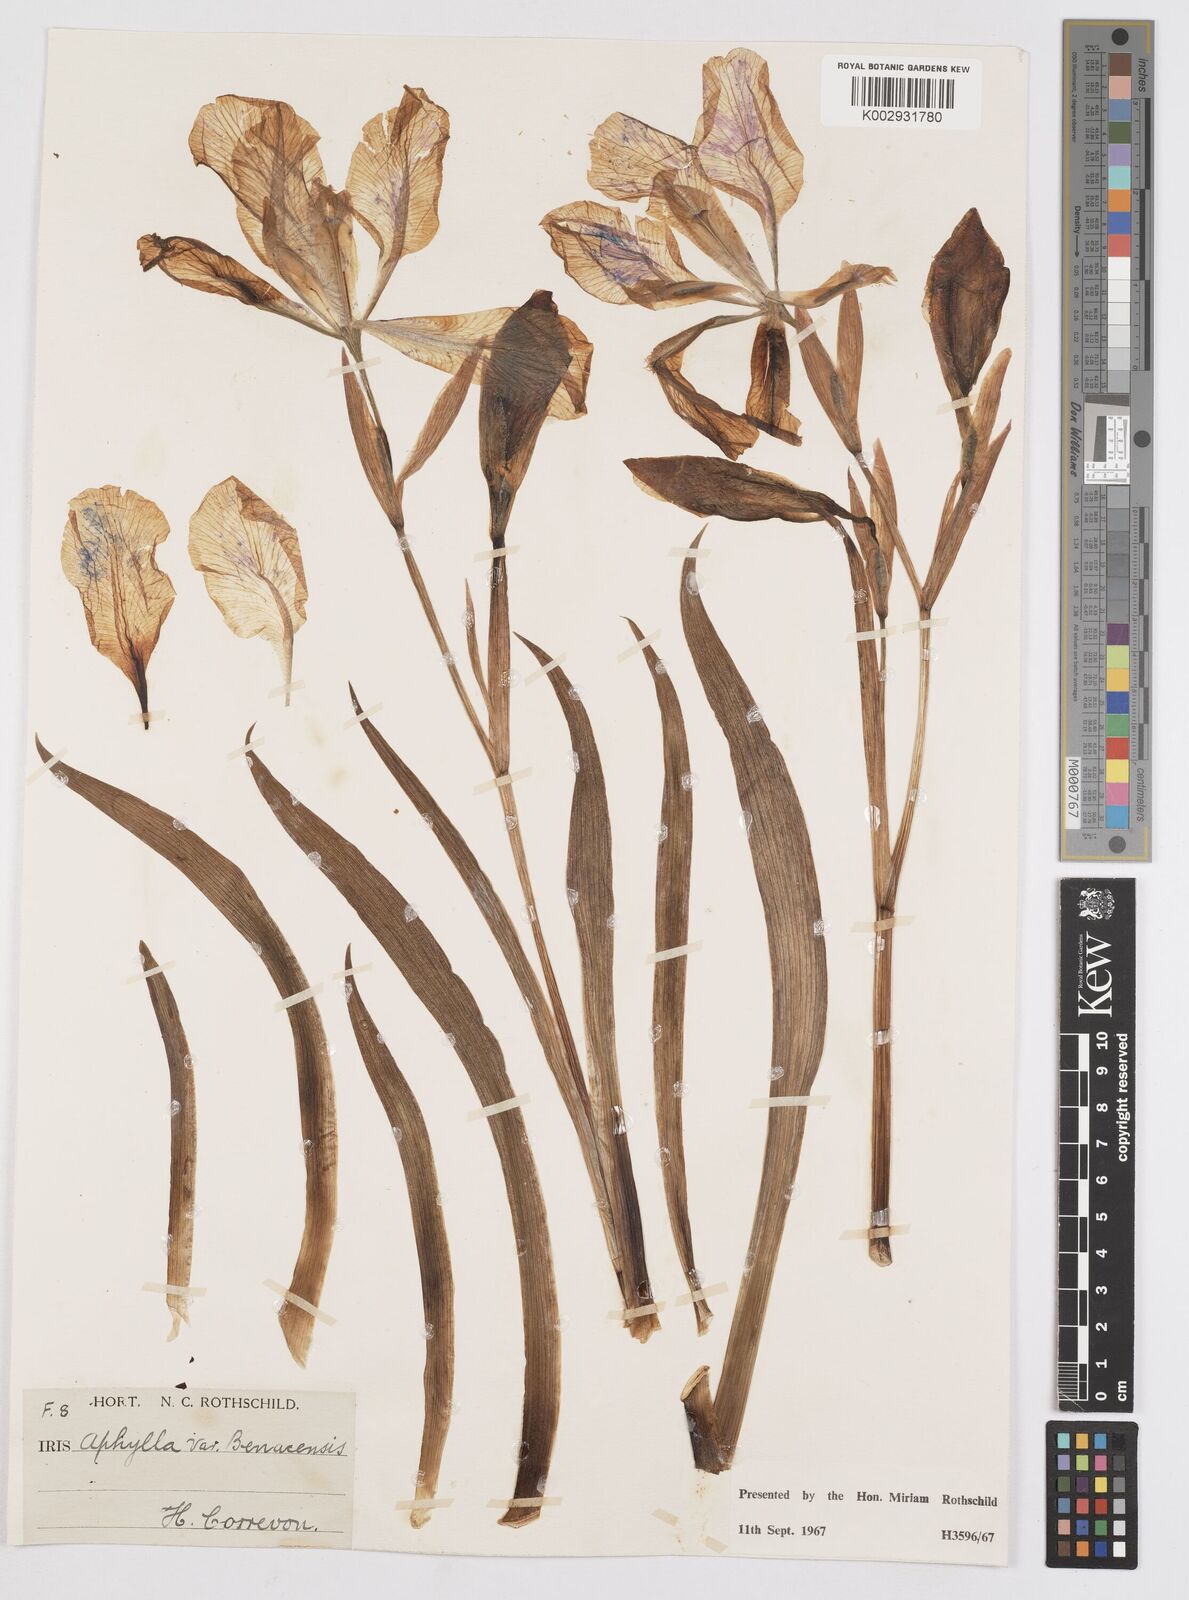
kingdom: Plantae
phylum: Tracheophyta
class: Liliopsida
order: Asparagales
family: Iridaceae
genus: Iris
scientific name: Iris aphylla
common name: Stool iris
